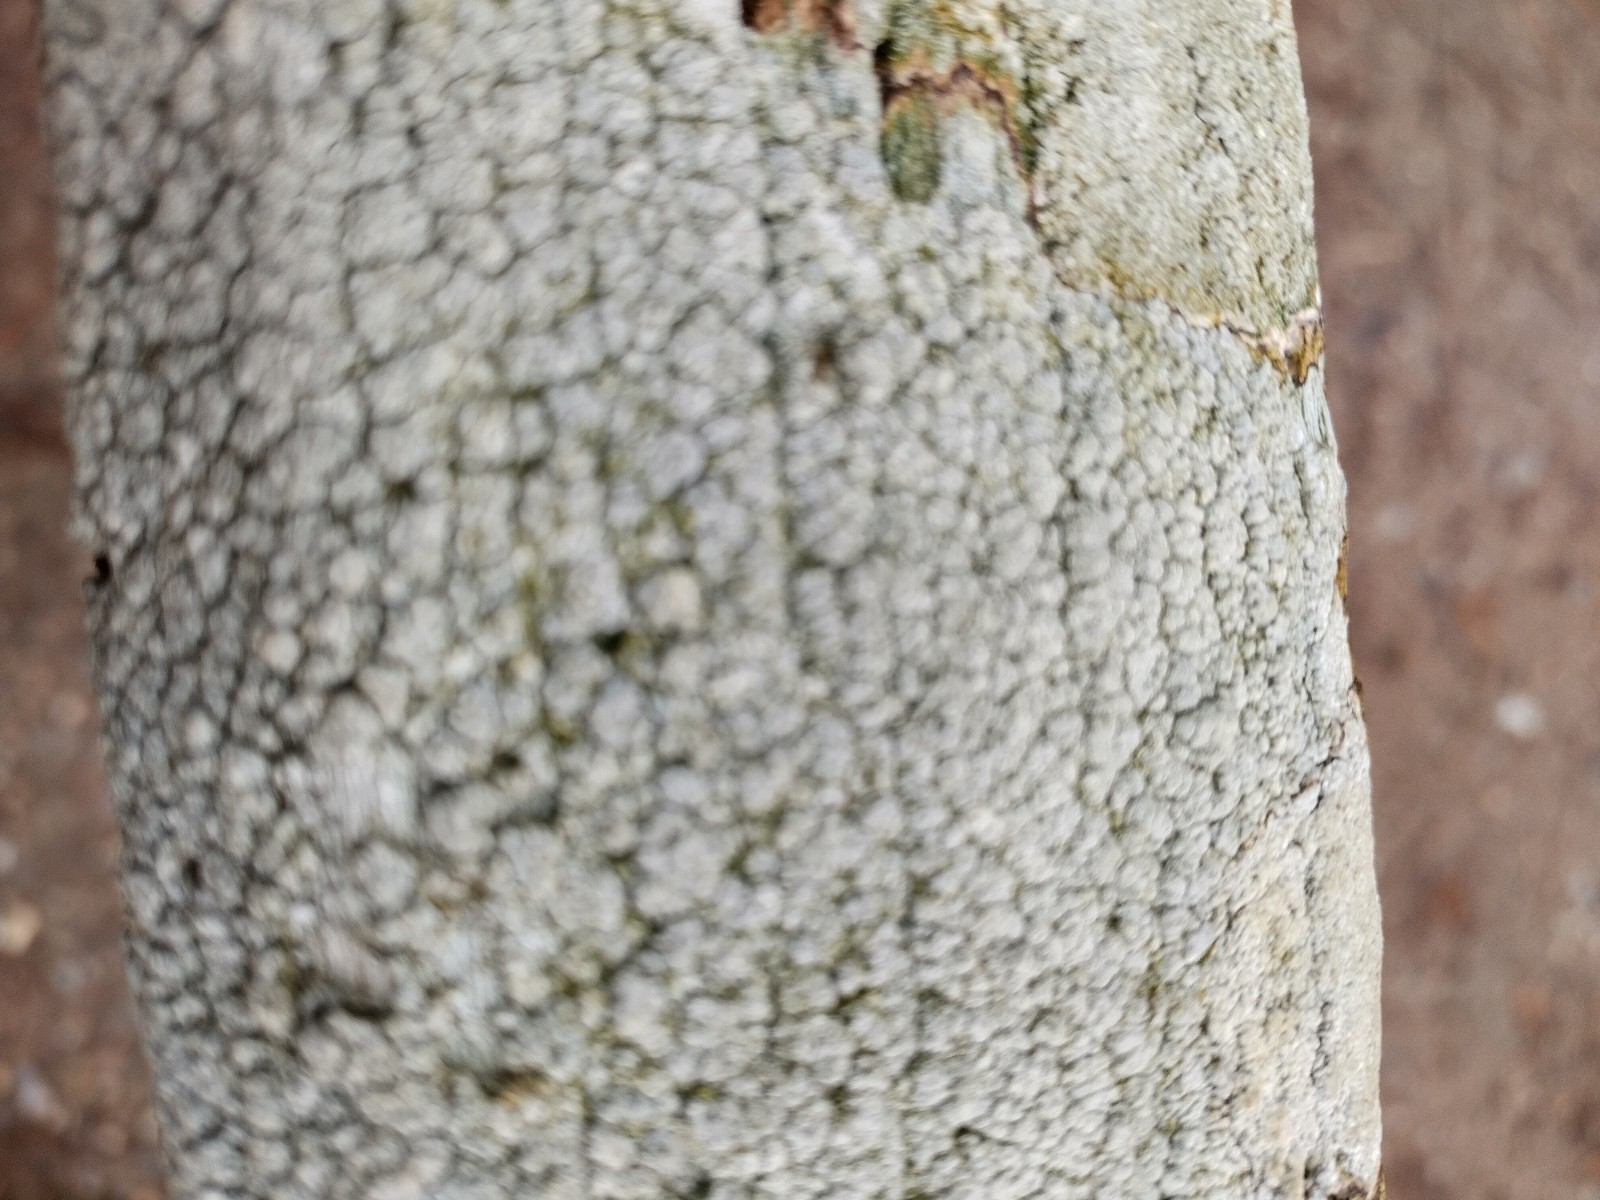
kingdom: Fungi
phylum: Ascomycota
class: Lecanoromycetes
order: Pertusariales
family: Pertusariaceae
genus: Pertusaria
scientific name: Pertusaria pertusa
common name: almindelig prikvortelav
